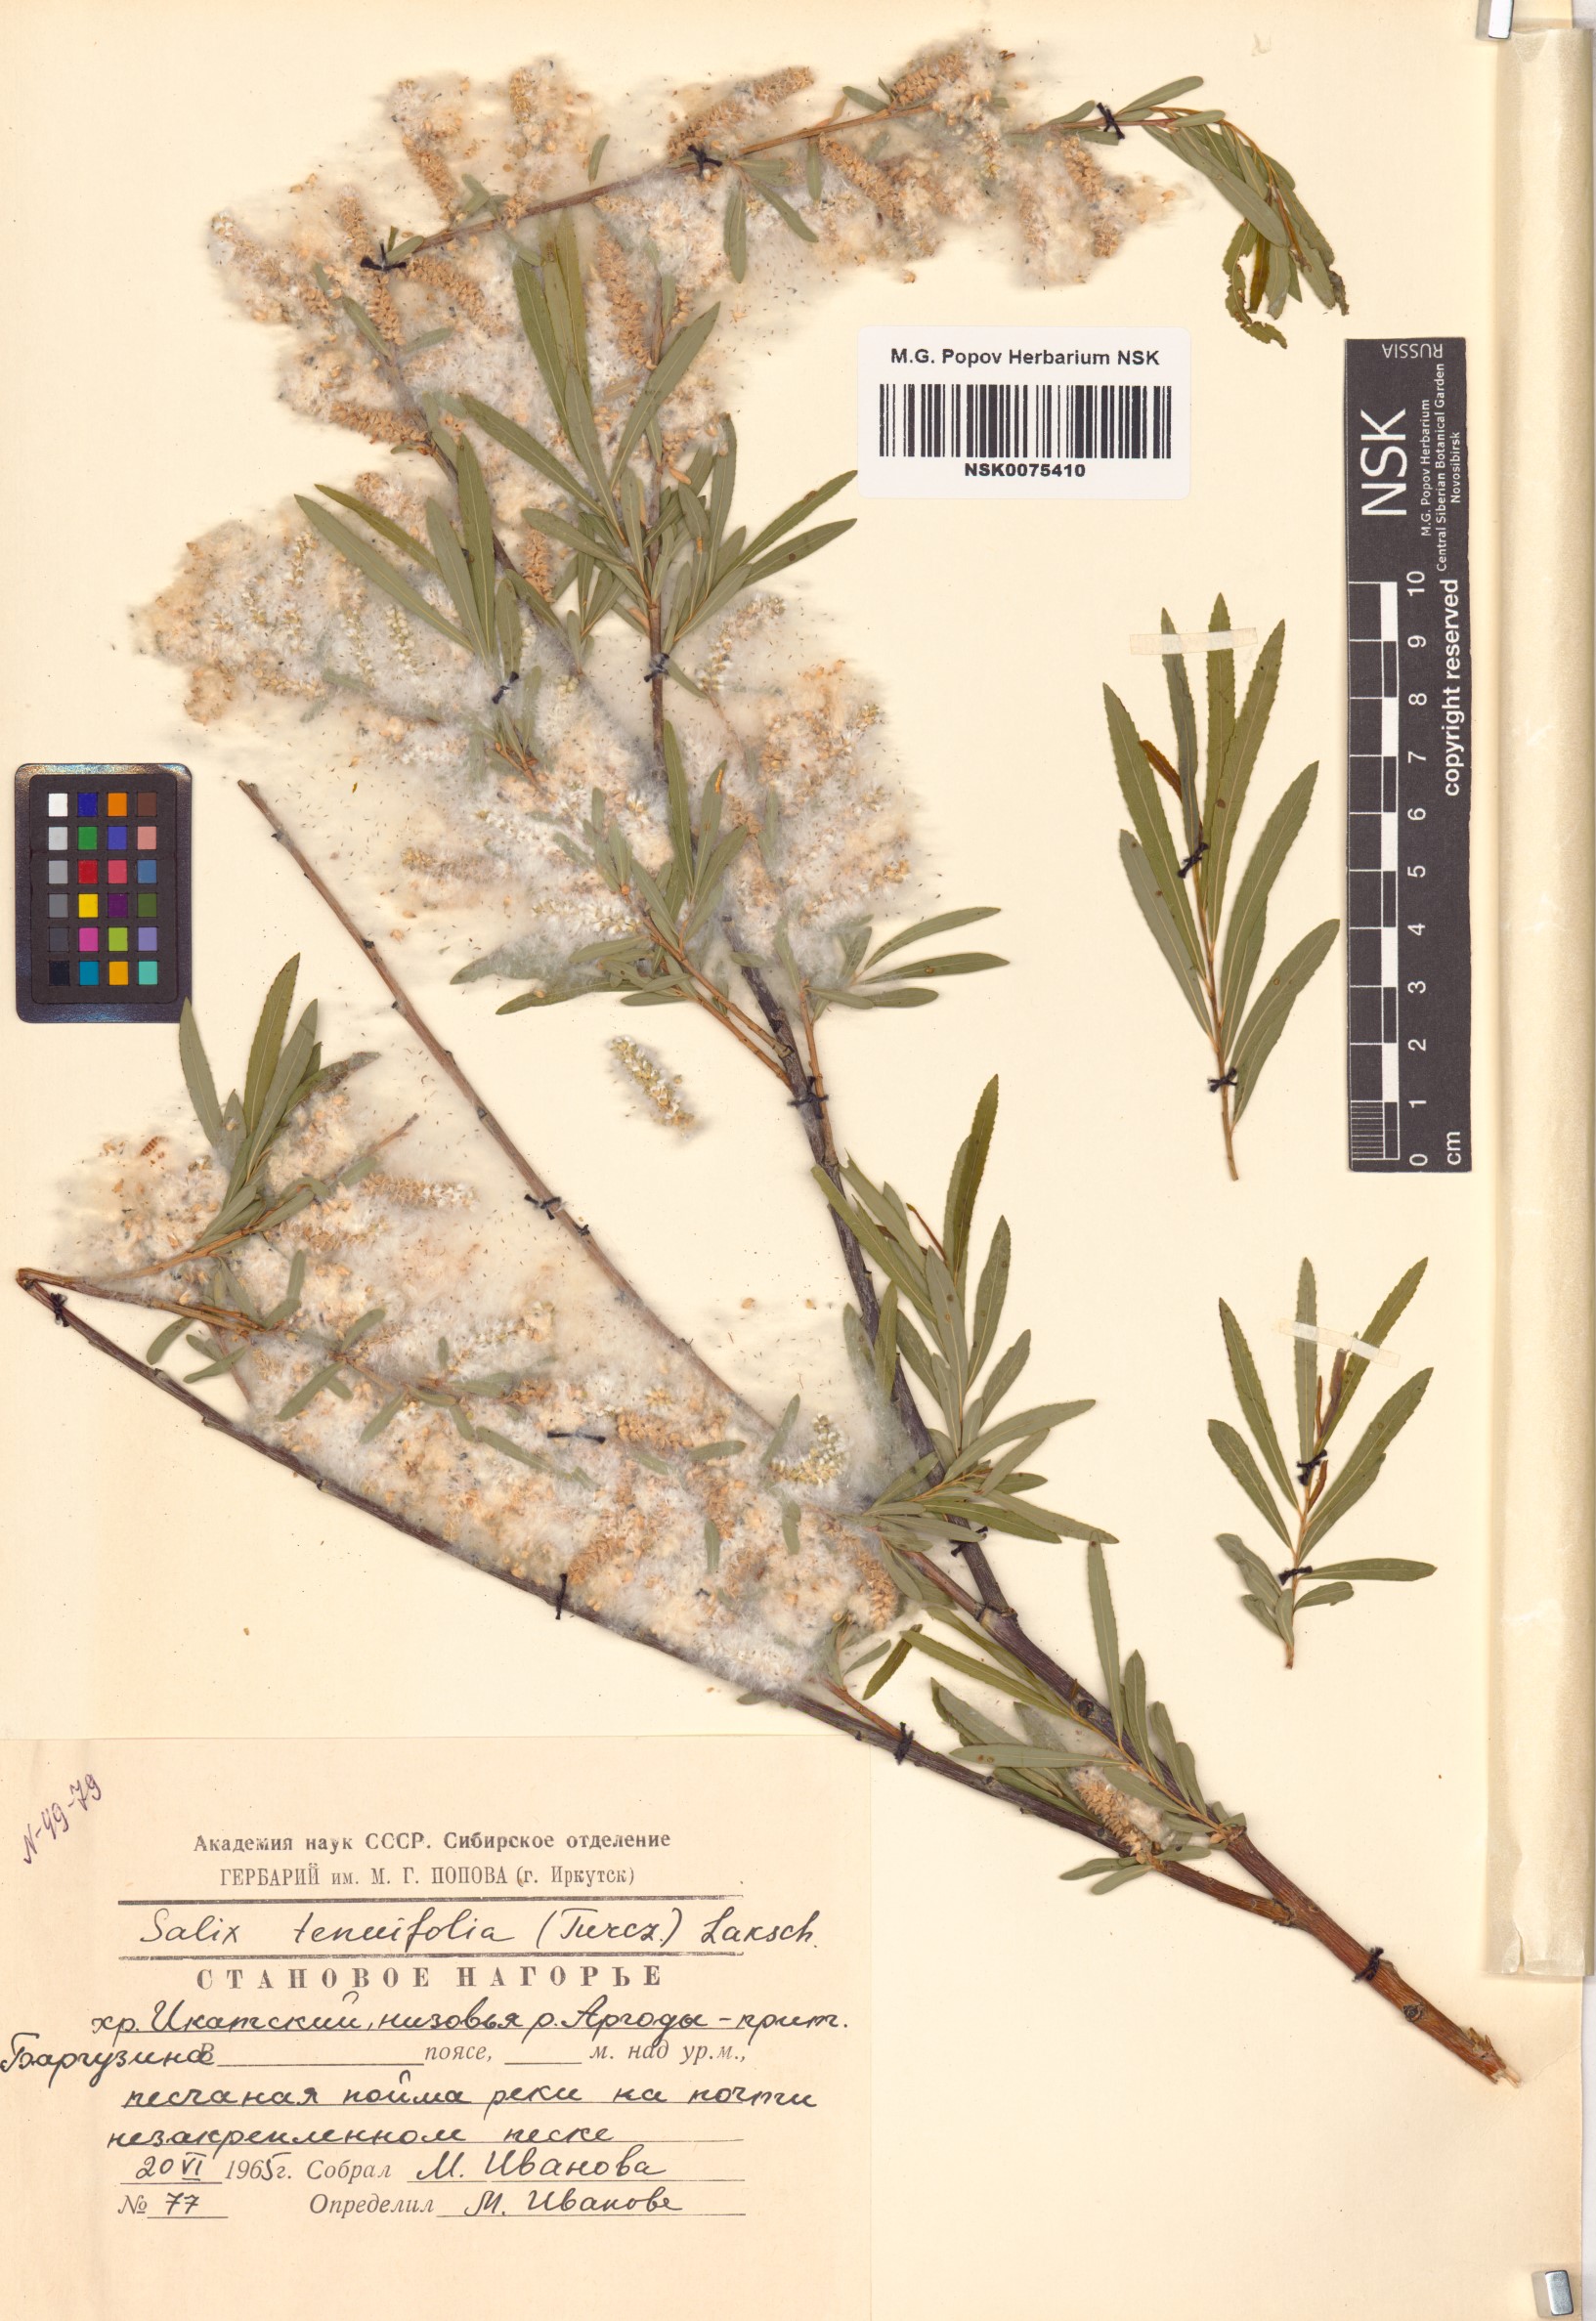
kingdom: Plantae
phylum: Tracheophyta
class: Magnoliopsida
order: Malpighiales
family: Salicaceae
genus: Salix
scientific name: Salix
